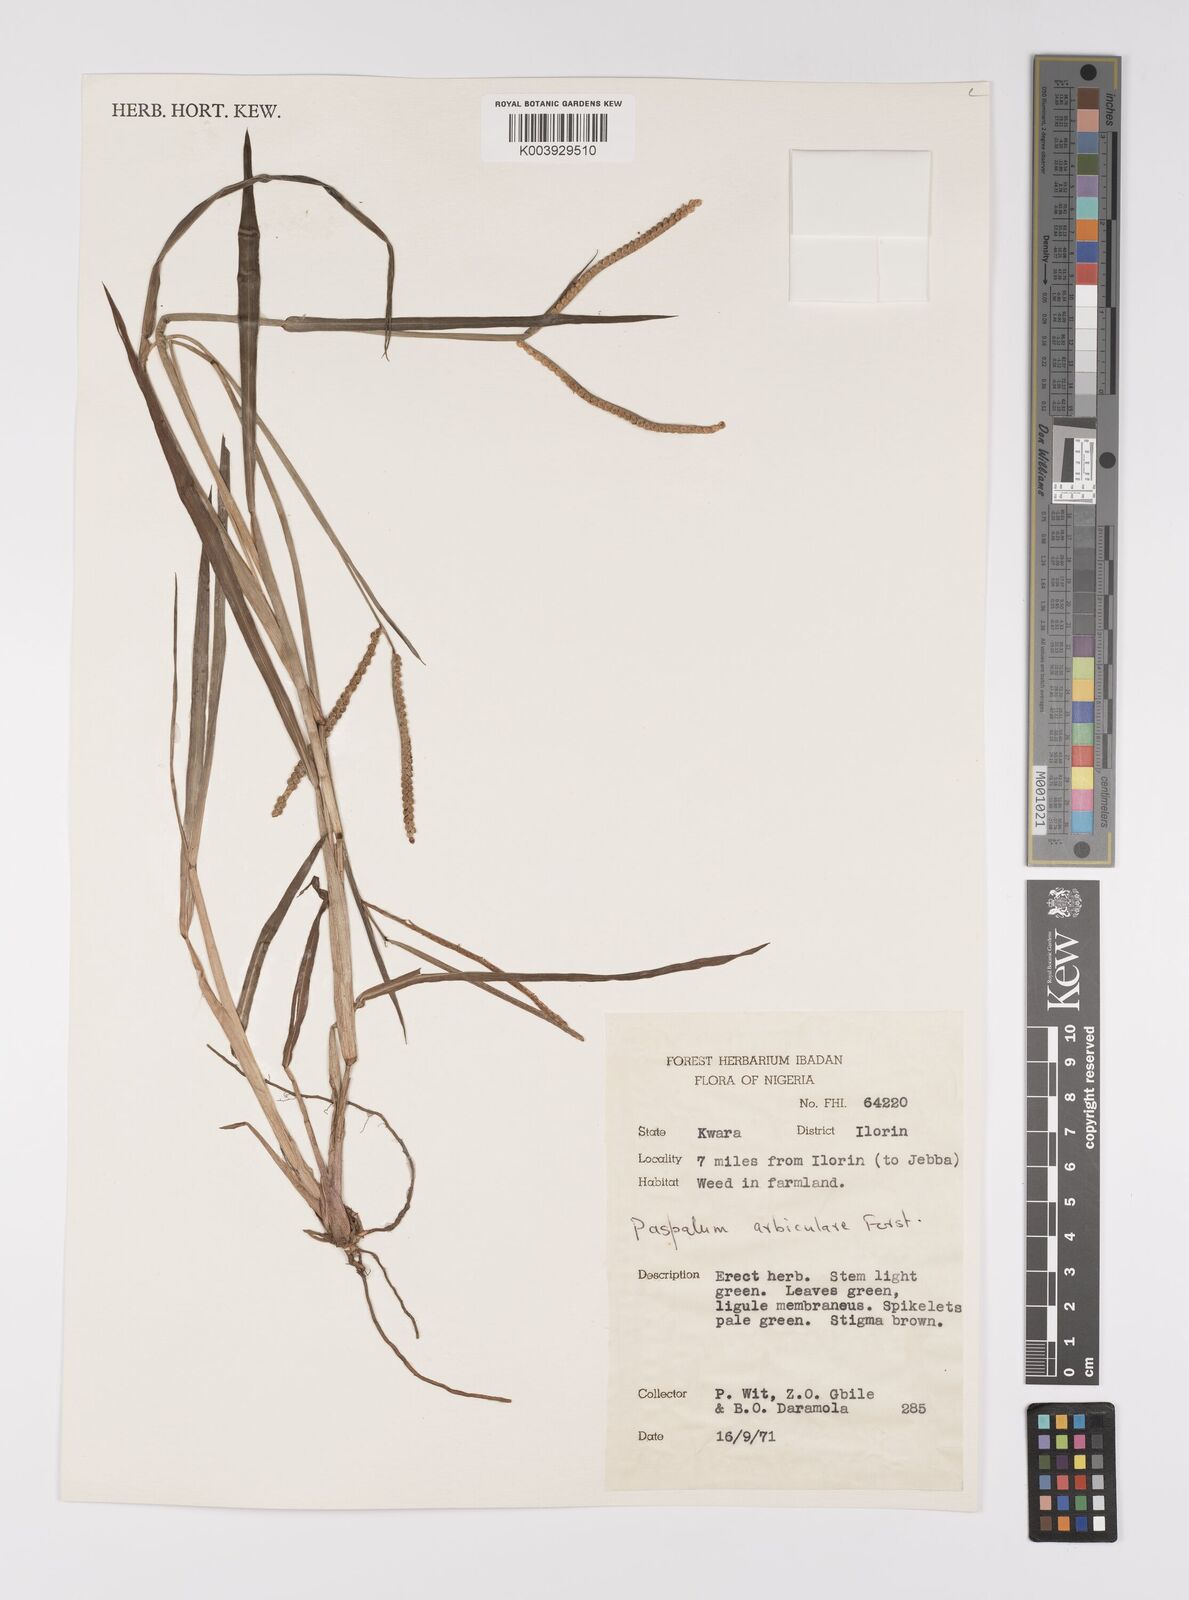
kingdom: Plantae
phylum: Tracheophyta
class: Liliopsida
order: Poales
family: Poaceae
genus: Paspalum
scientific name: Paspalum scrobiculatum
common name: Kodo millet
